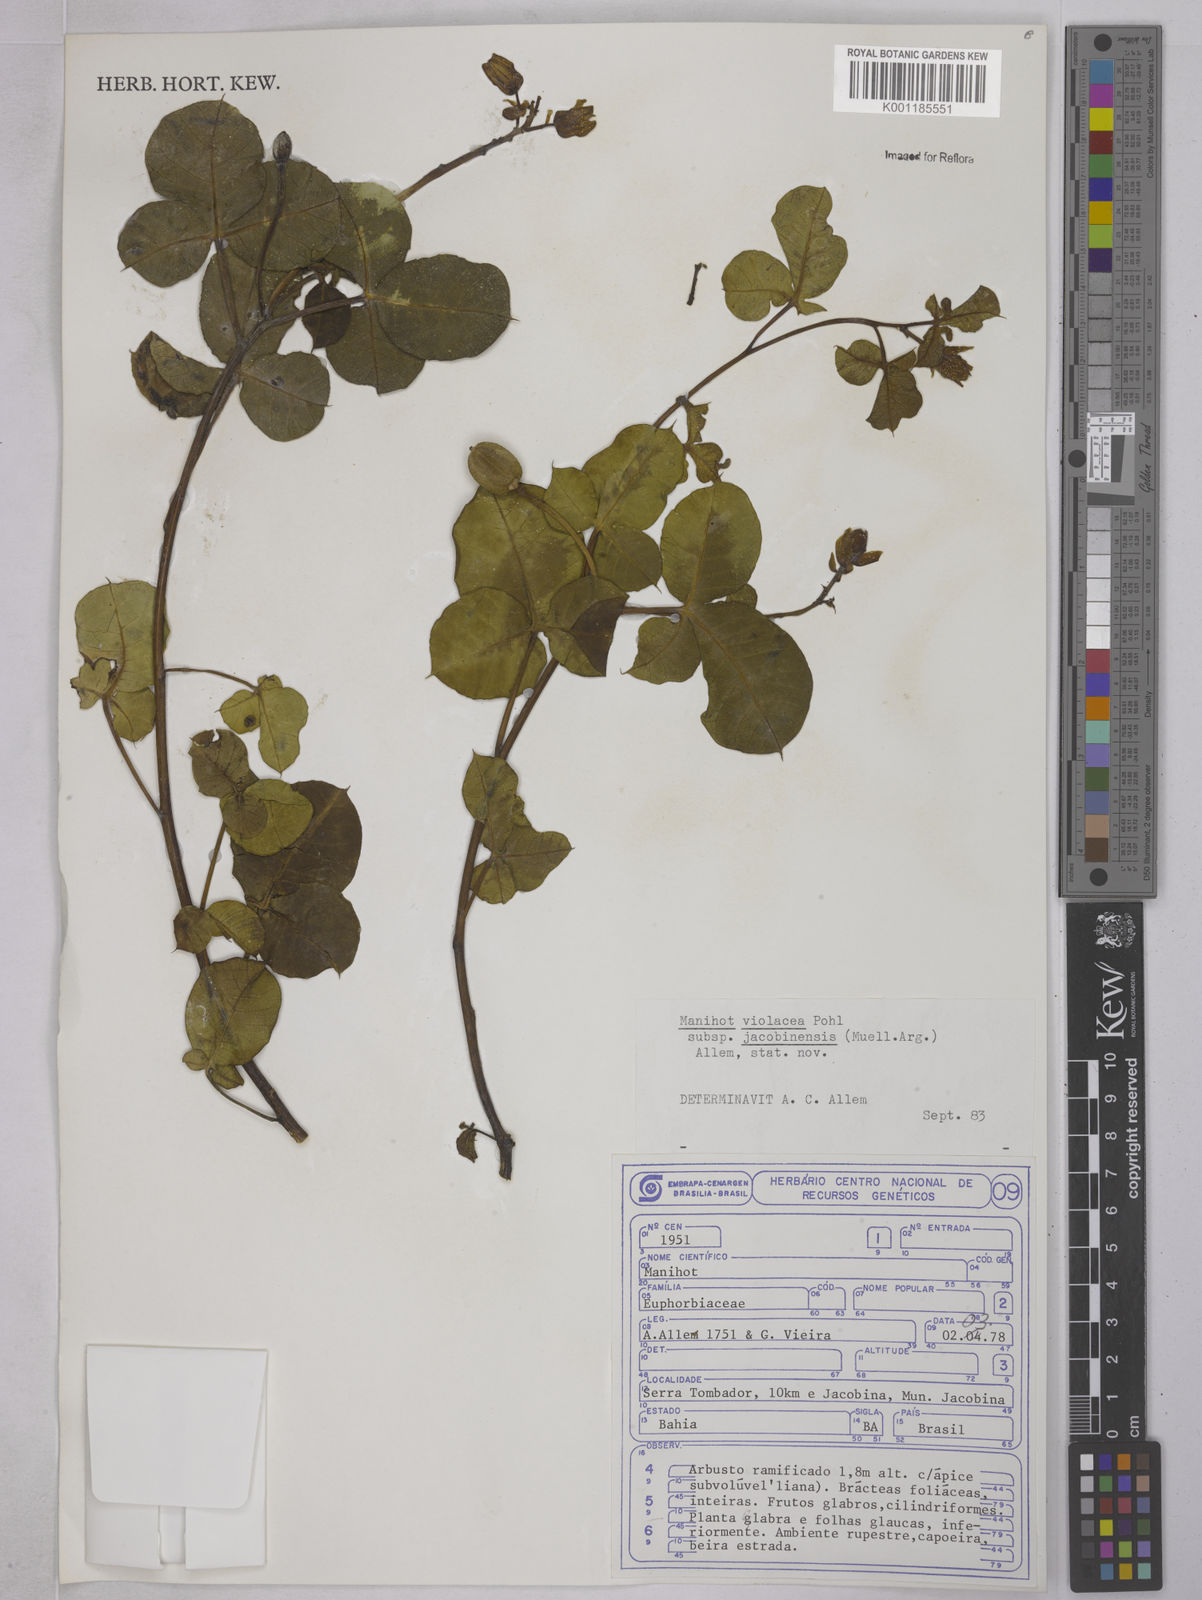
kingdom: Plantae
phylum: Tracheophyta
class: Magnoliopsida
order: Malpighiales
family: Euphorbiaceae
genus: Manihot
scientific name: Manihot
